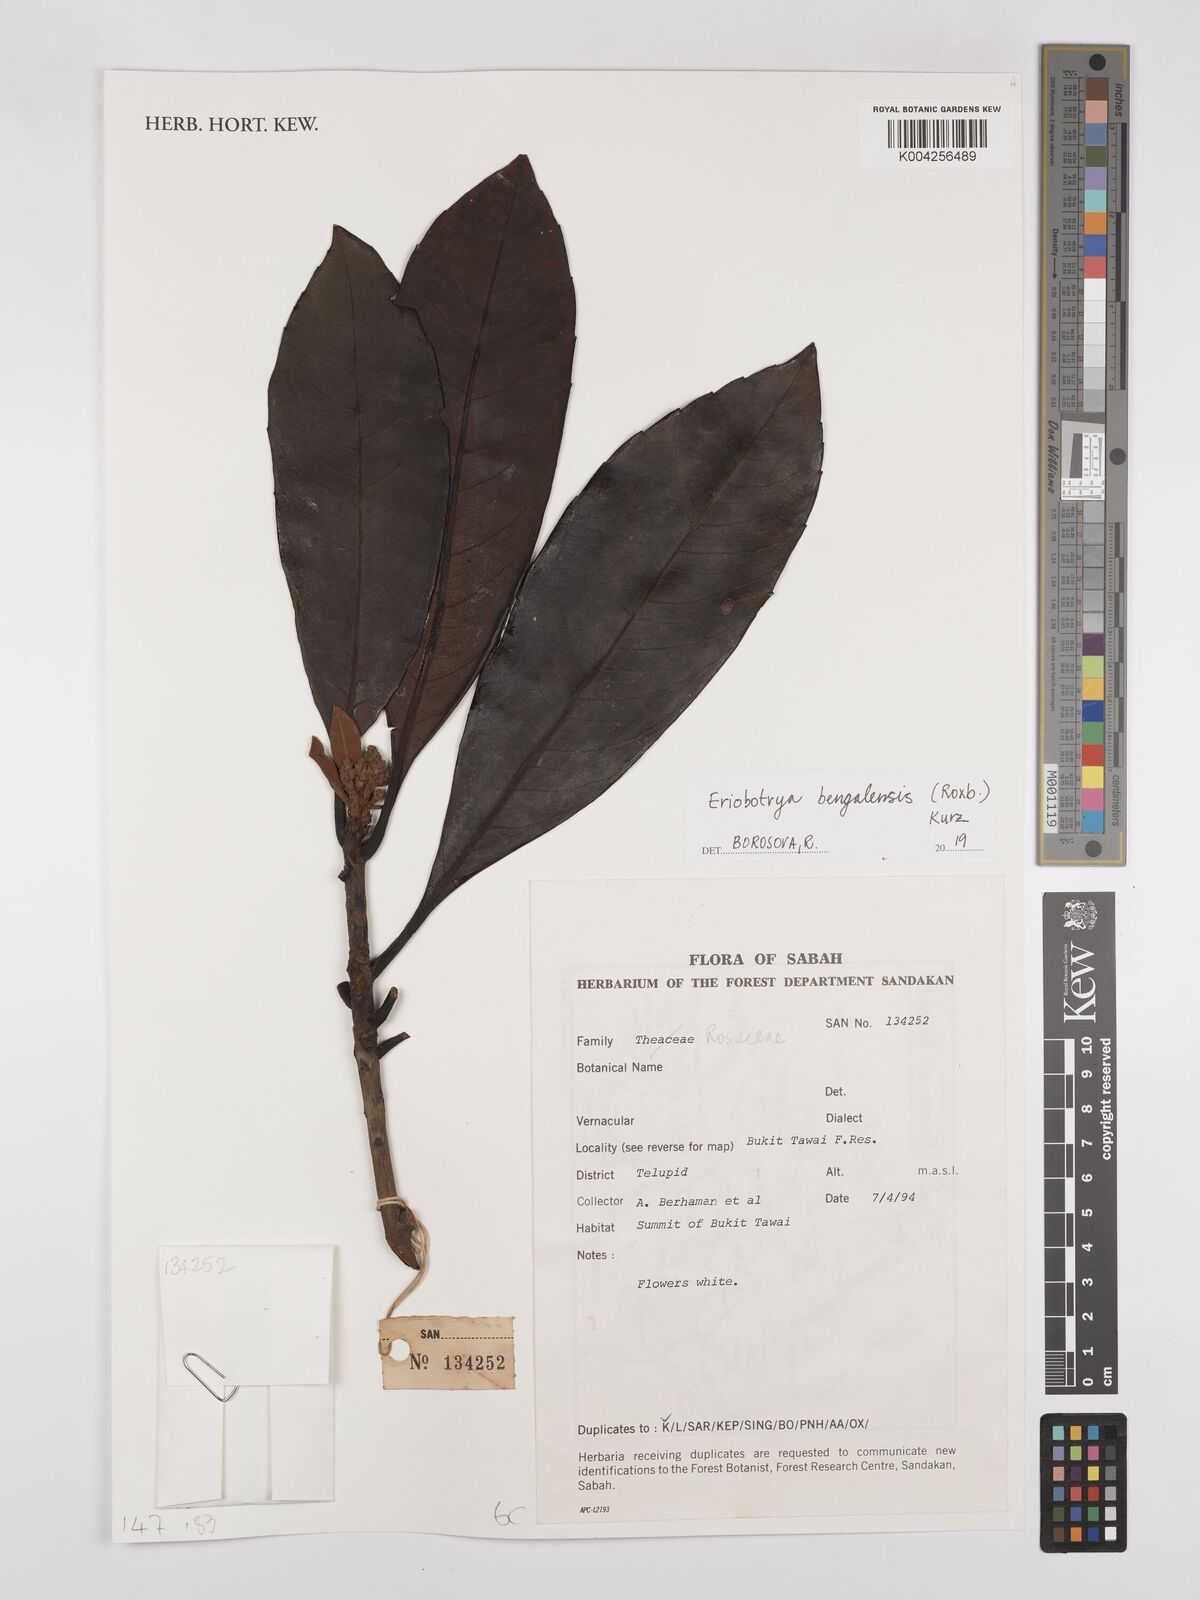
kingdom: Plantae
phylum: Tracheophyta
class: Magnoliopsida
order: Rosales
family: Rosaceae
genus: Rhaphiolepis
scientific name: Rhaphiolepis bengalensis
